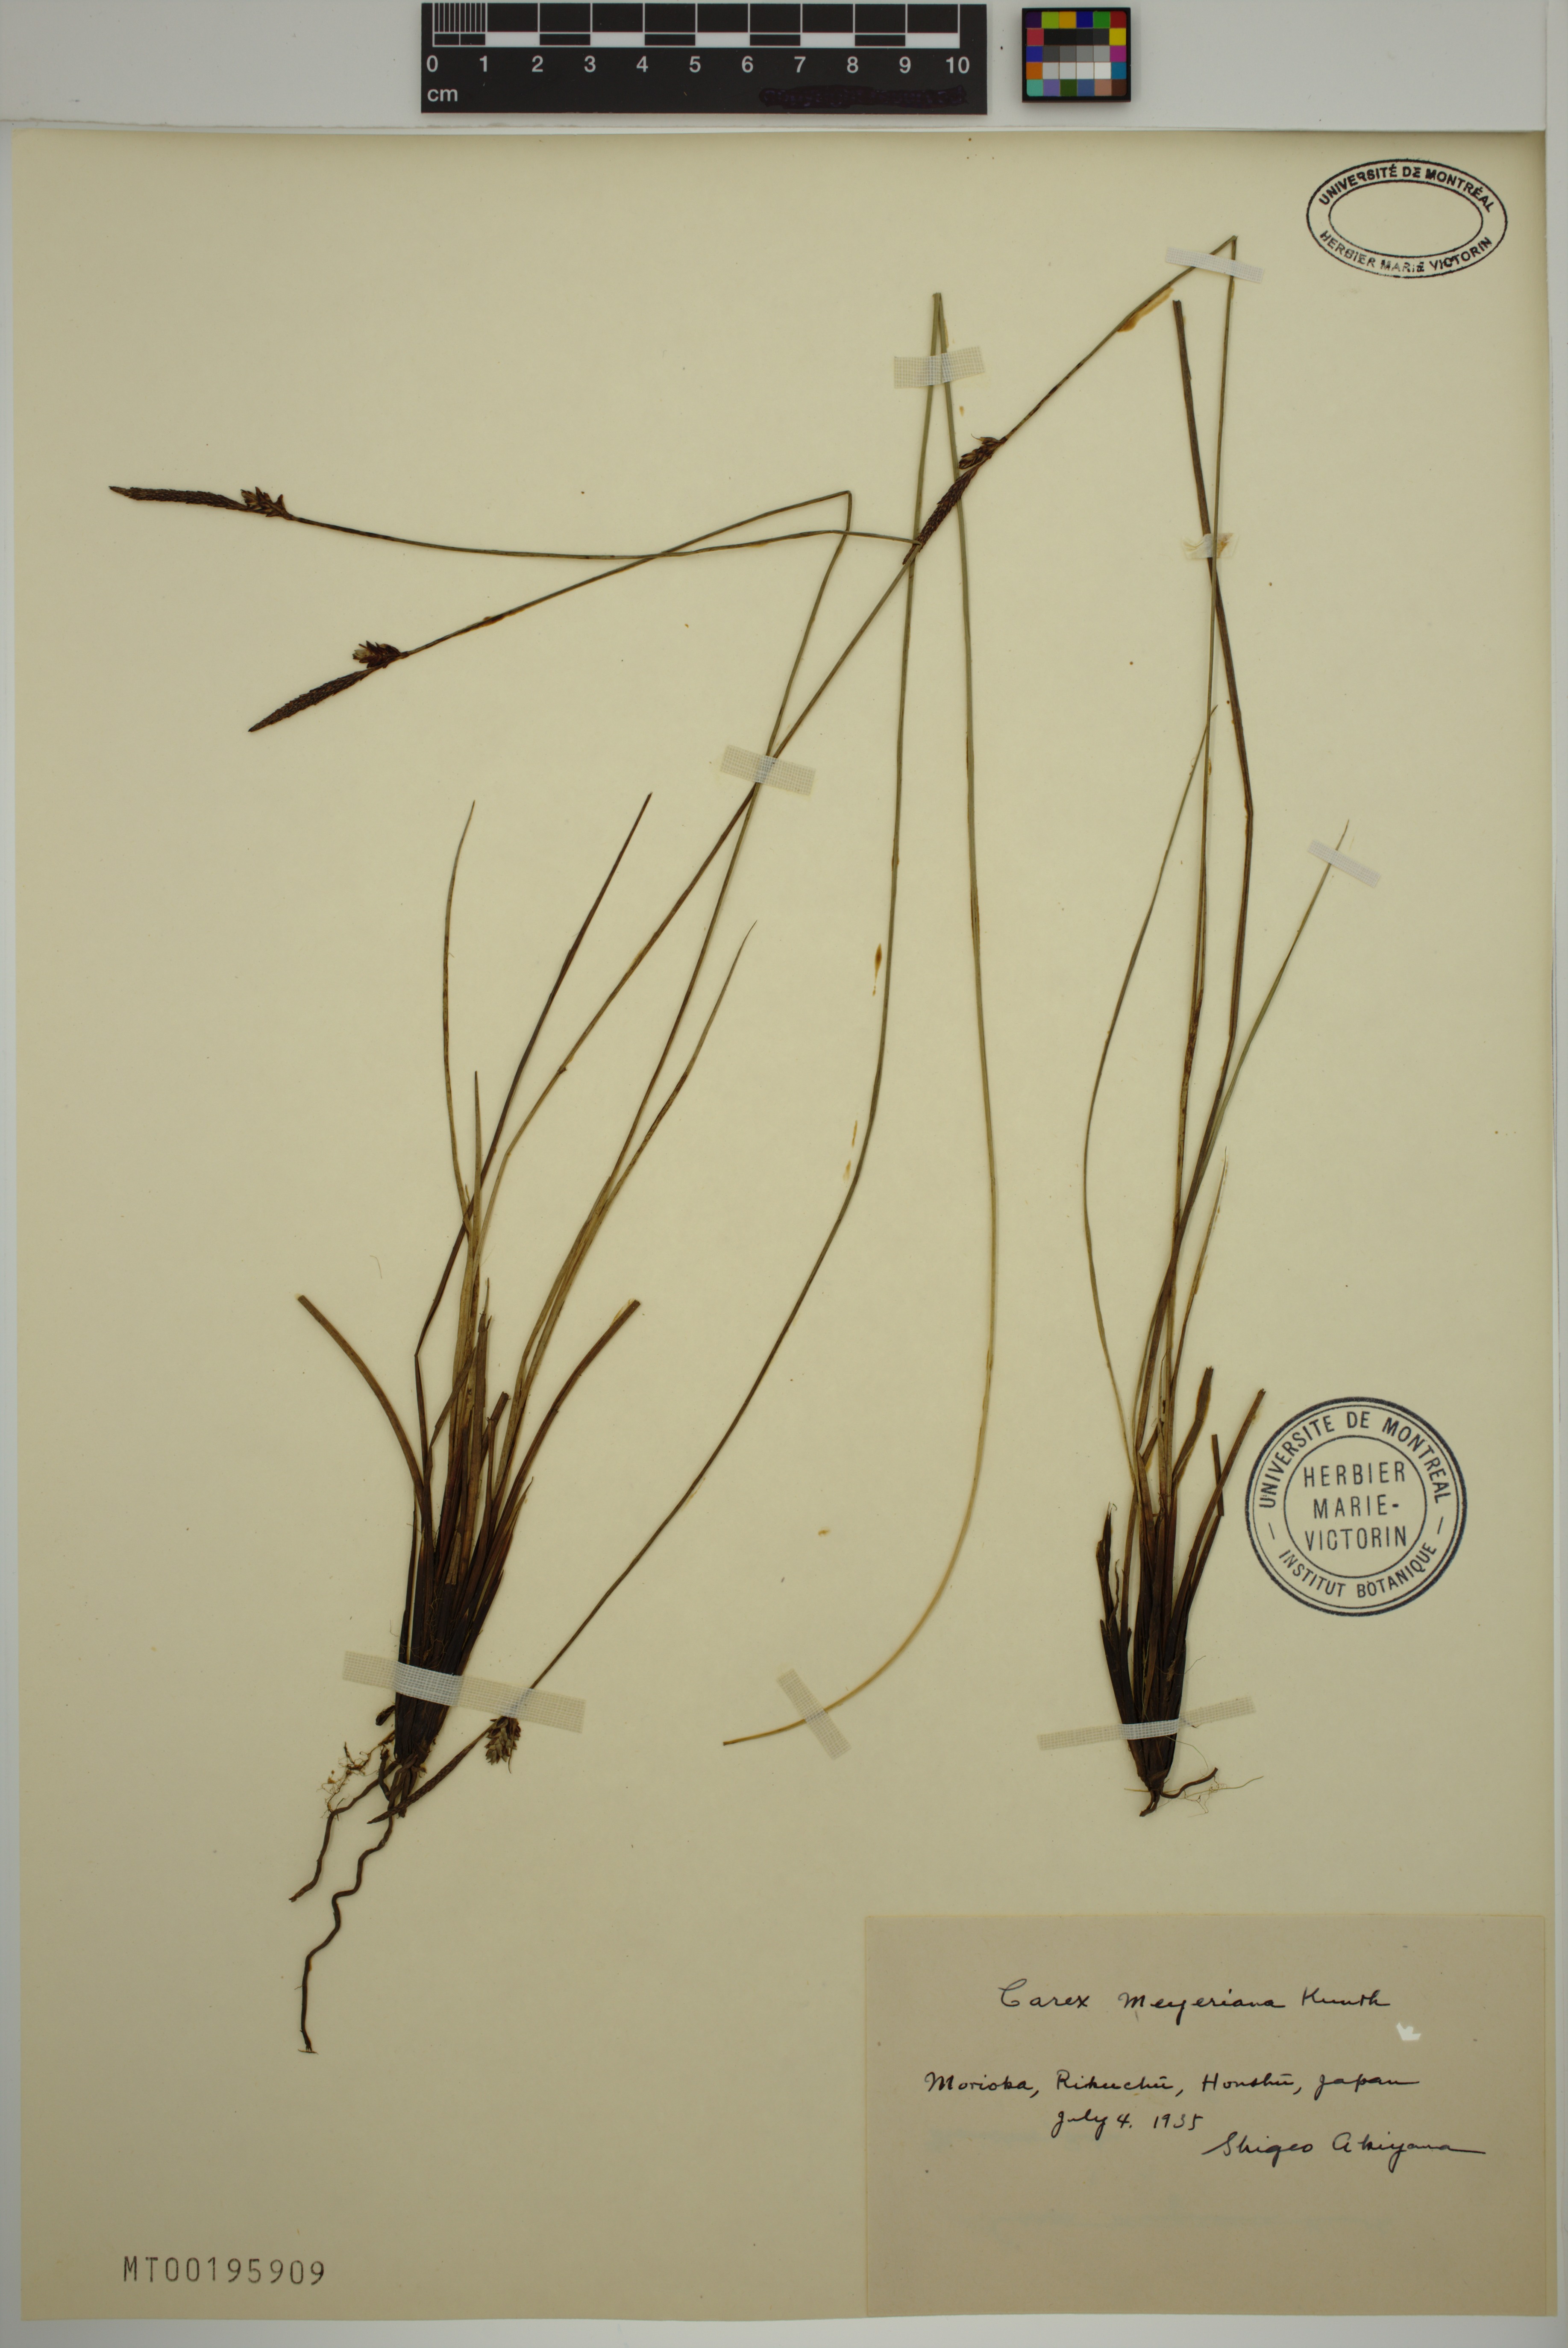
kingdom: Plantae
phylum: Tracheophyta
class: Liliopsida
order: Poales
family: Cyperaceae
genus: Carex
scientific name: Carex meyeriana
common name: Wula sedge
